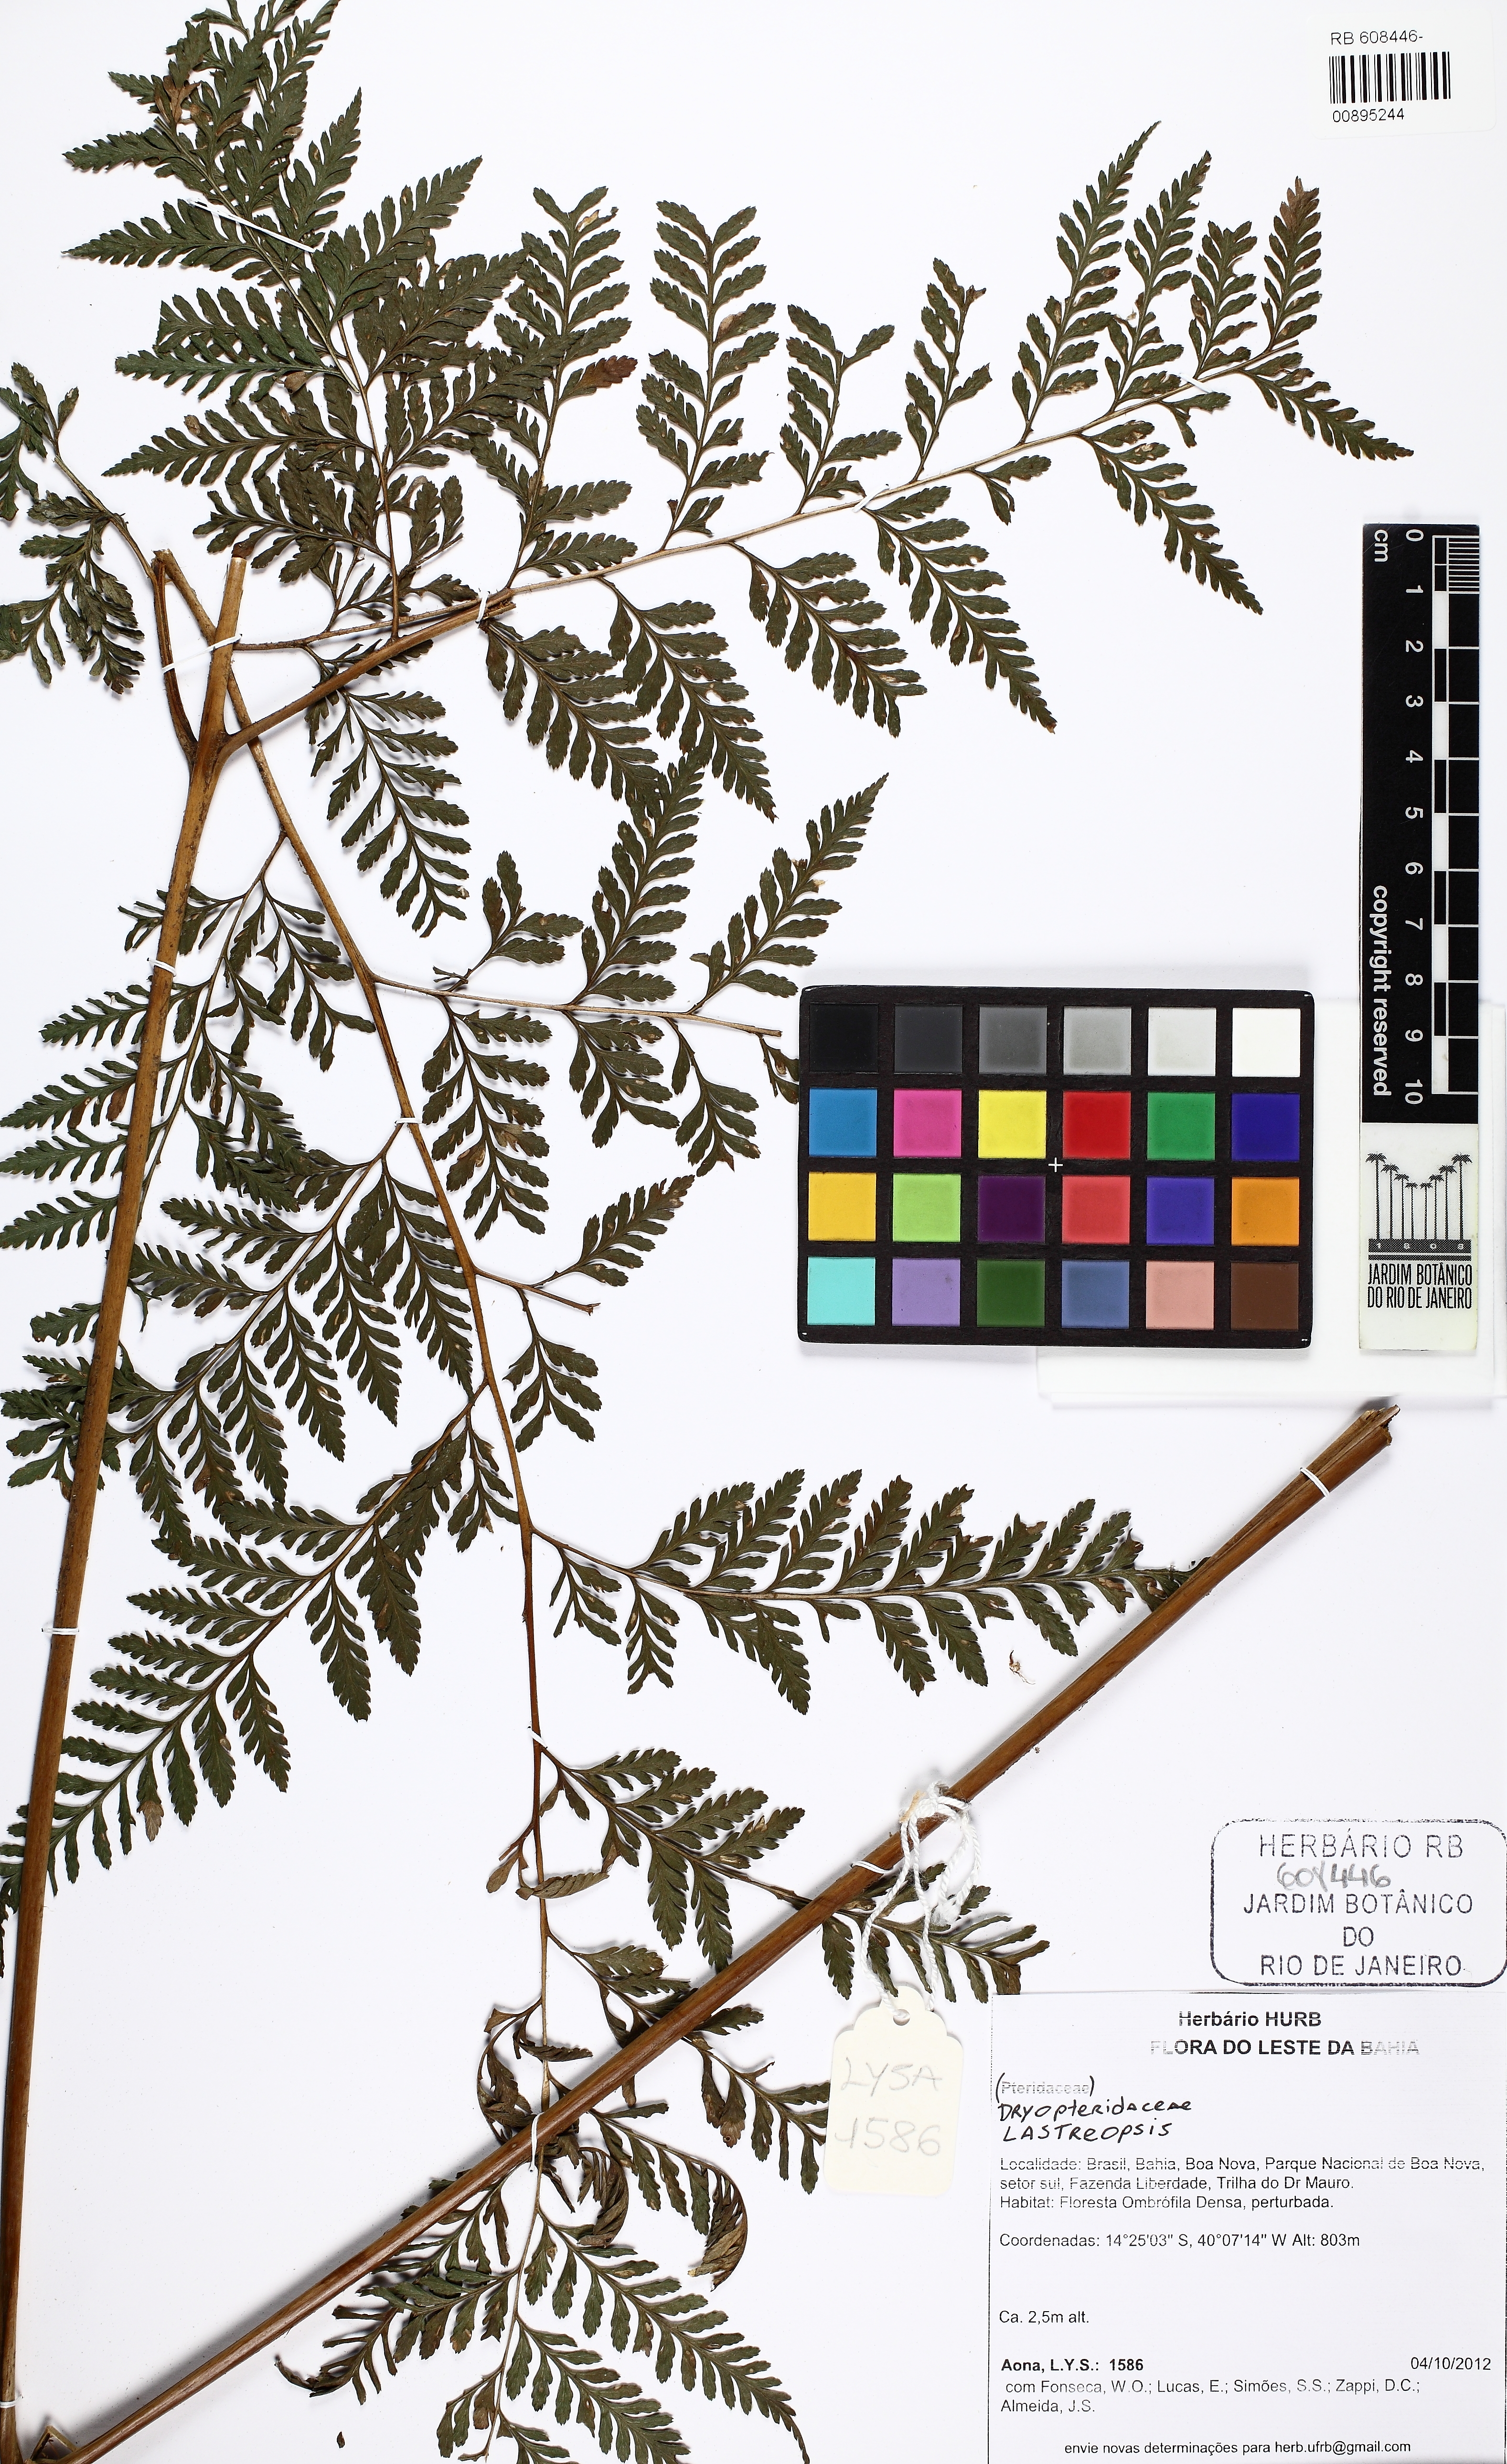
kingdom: Plantae
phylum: Tracheophyta
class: Polypodiopsida
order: Polypodiales
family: Dryopteridaceae
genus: Lastreopsis
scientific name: Lastreopsis
